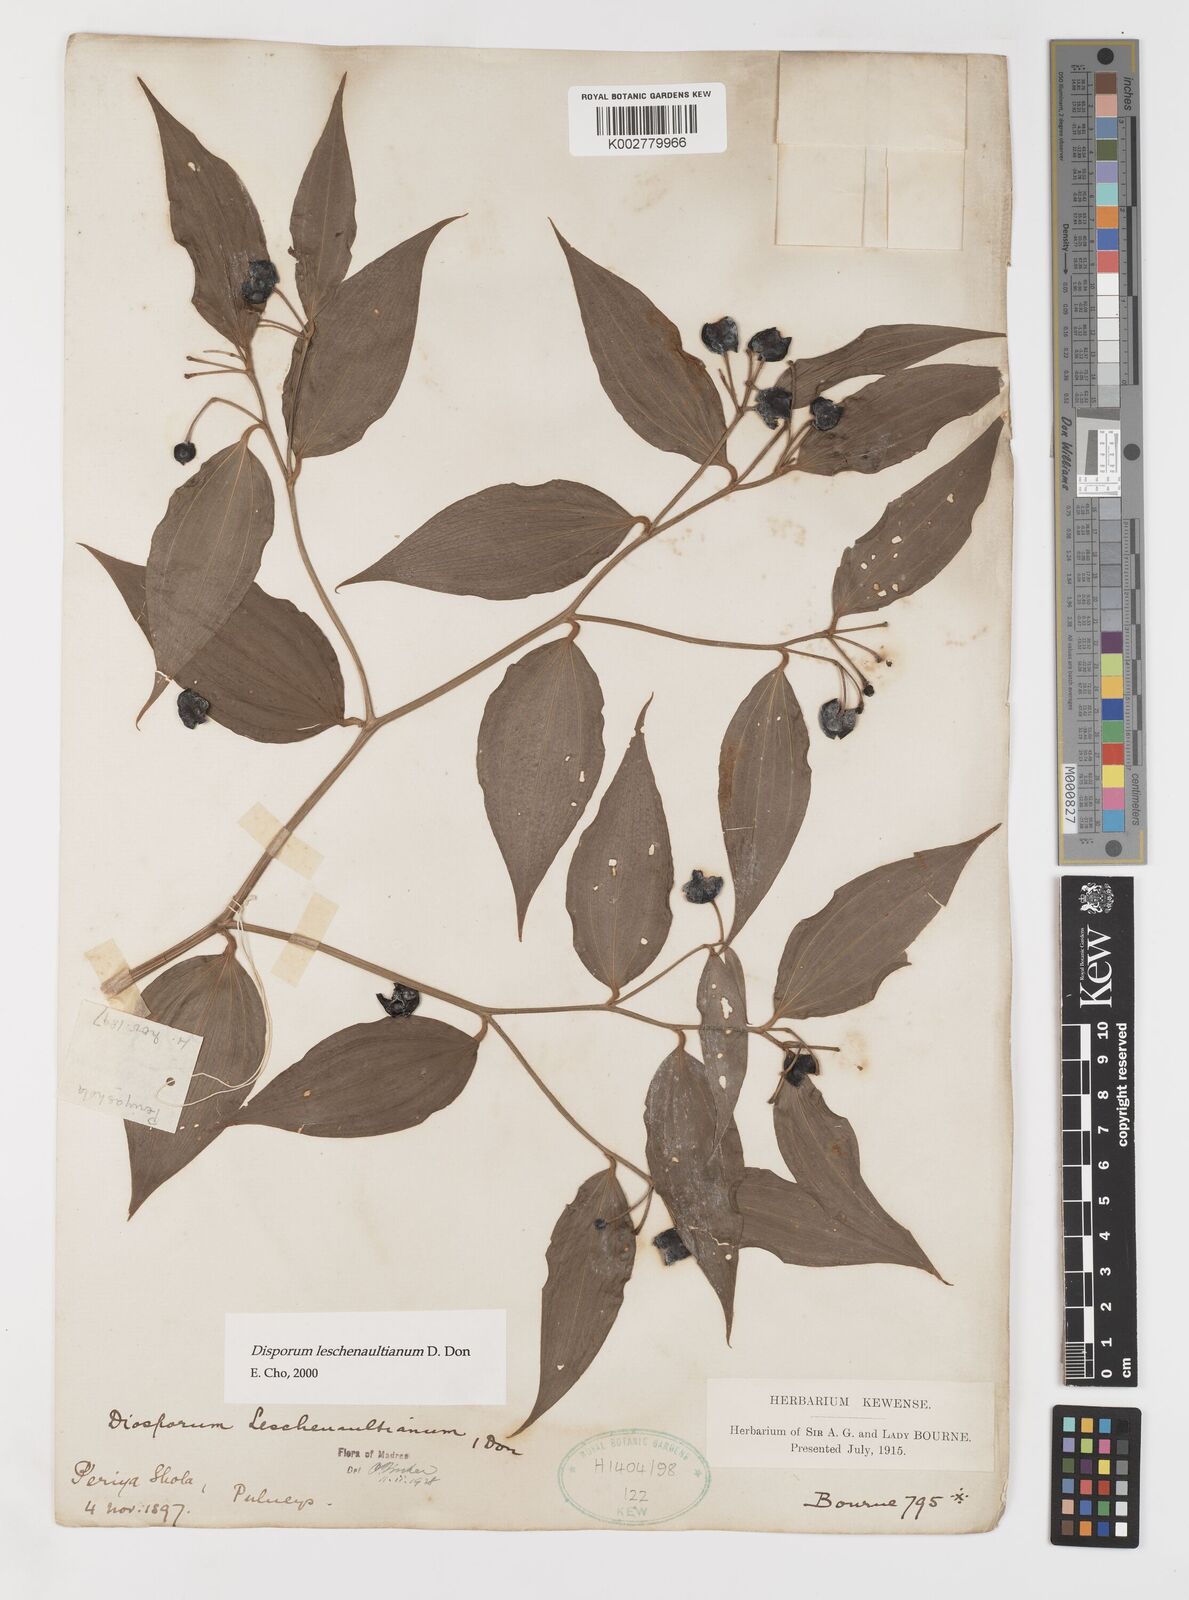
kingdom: Plantae
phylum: Tracheophyta
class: Liliopsida
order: Liliales
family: Colchicaceae
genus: Disporum
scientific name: Disporum cantoniense
